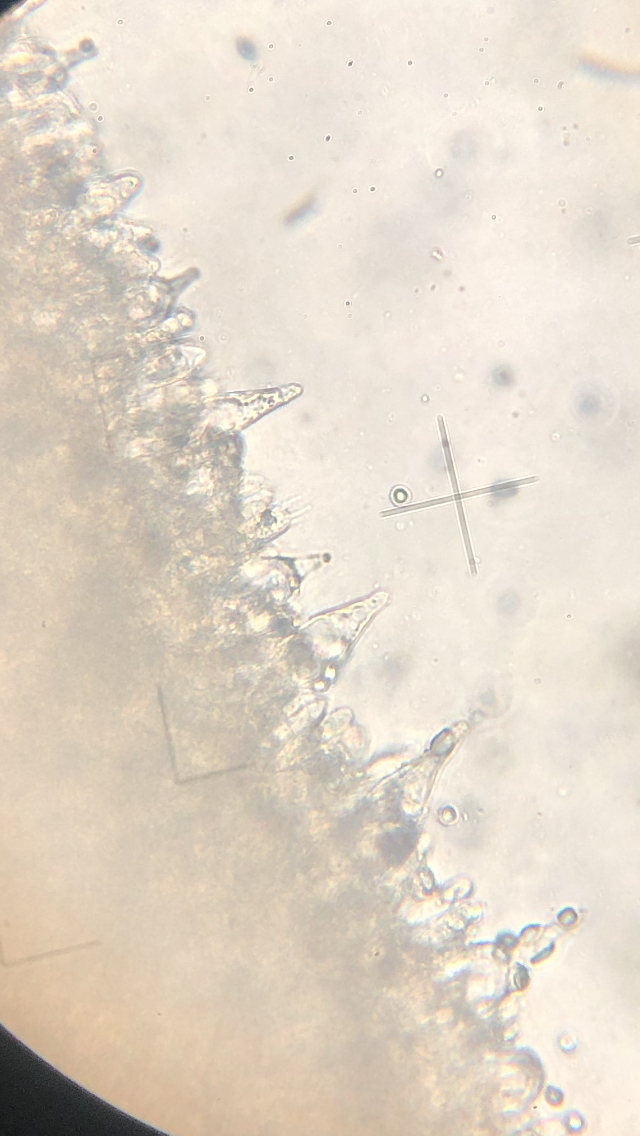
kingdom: Fungi
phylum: Basidiomycota
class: Agaricomycetes
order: Agaricales
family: Mycenaceae
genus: Mycena
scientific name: Mycena abramsii
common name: sommer-huesvamp
